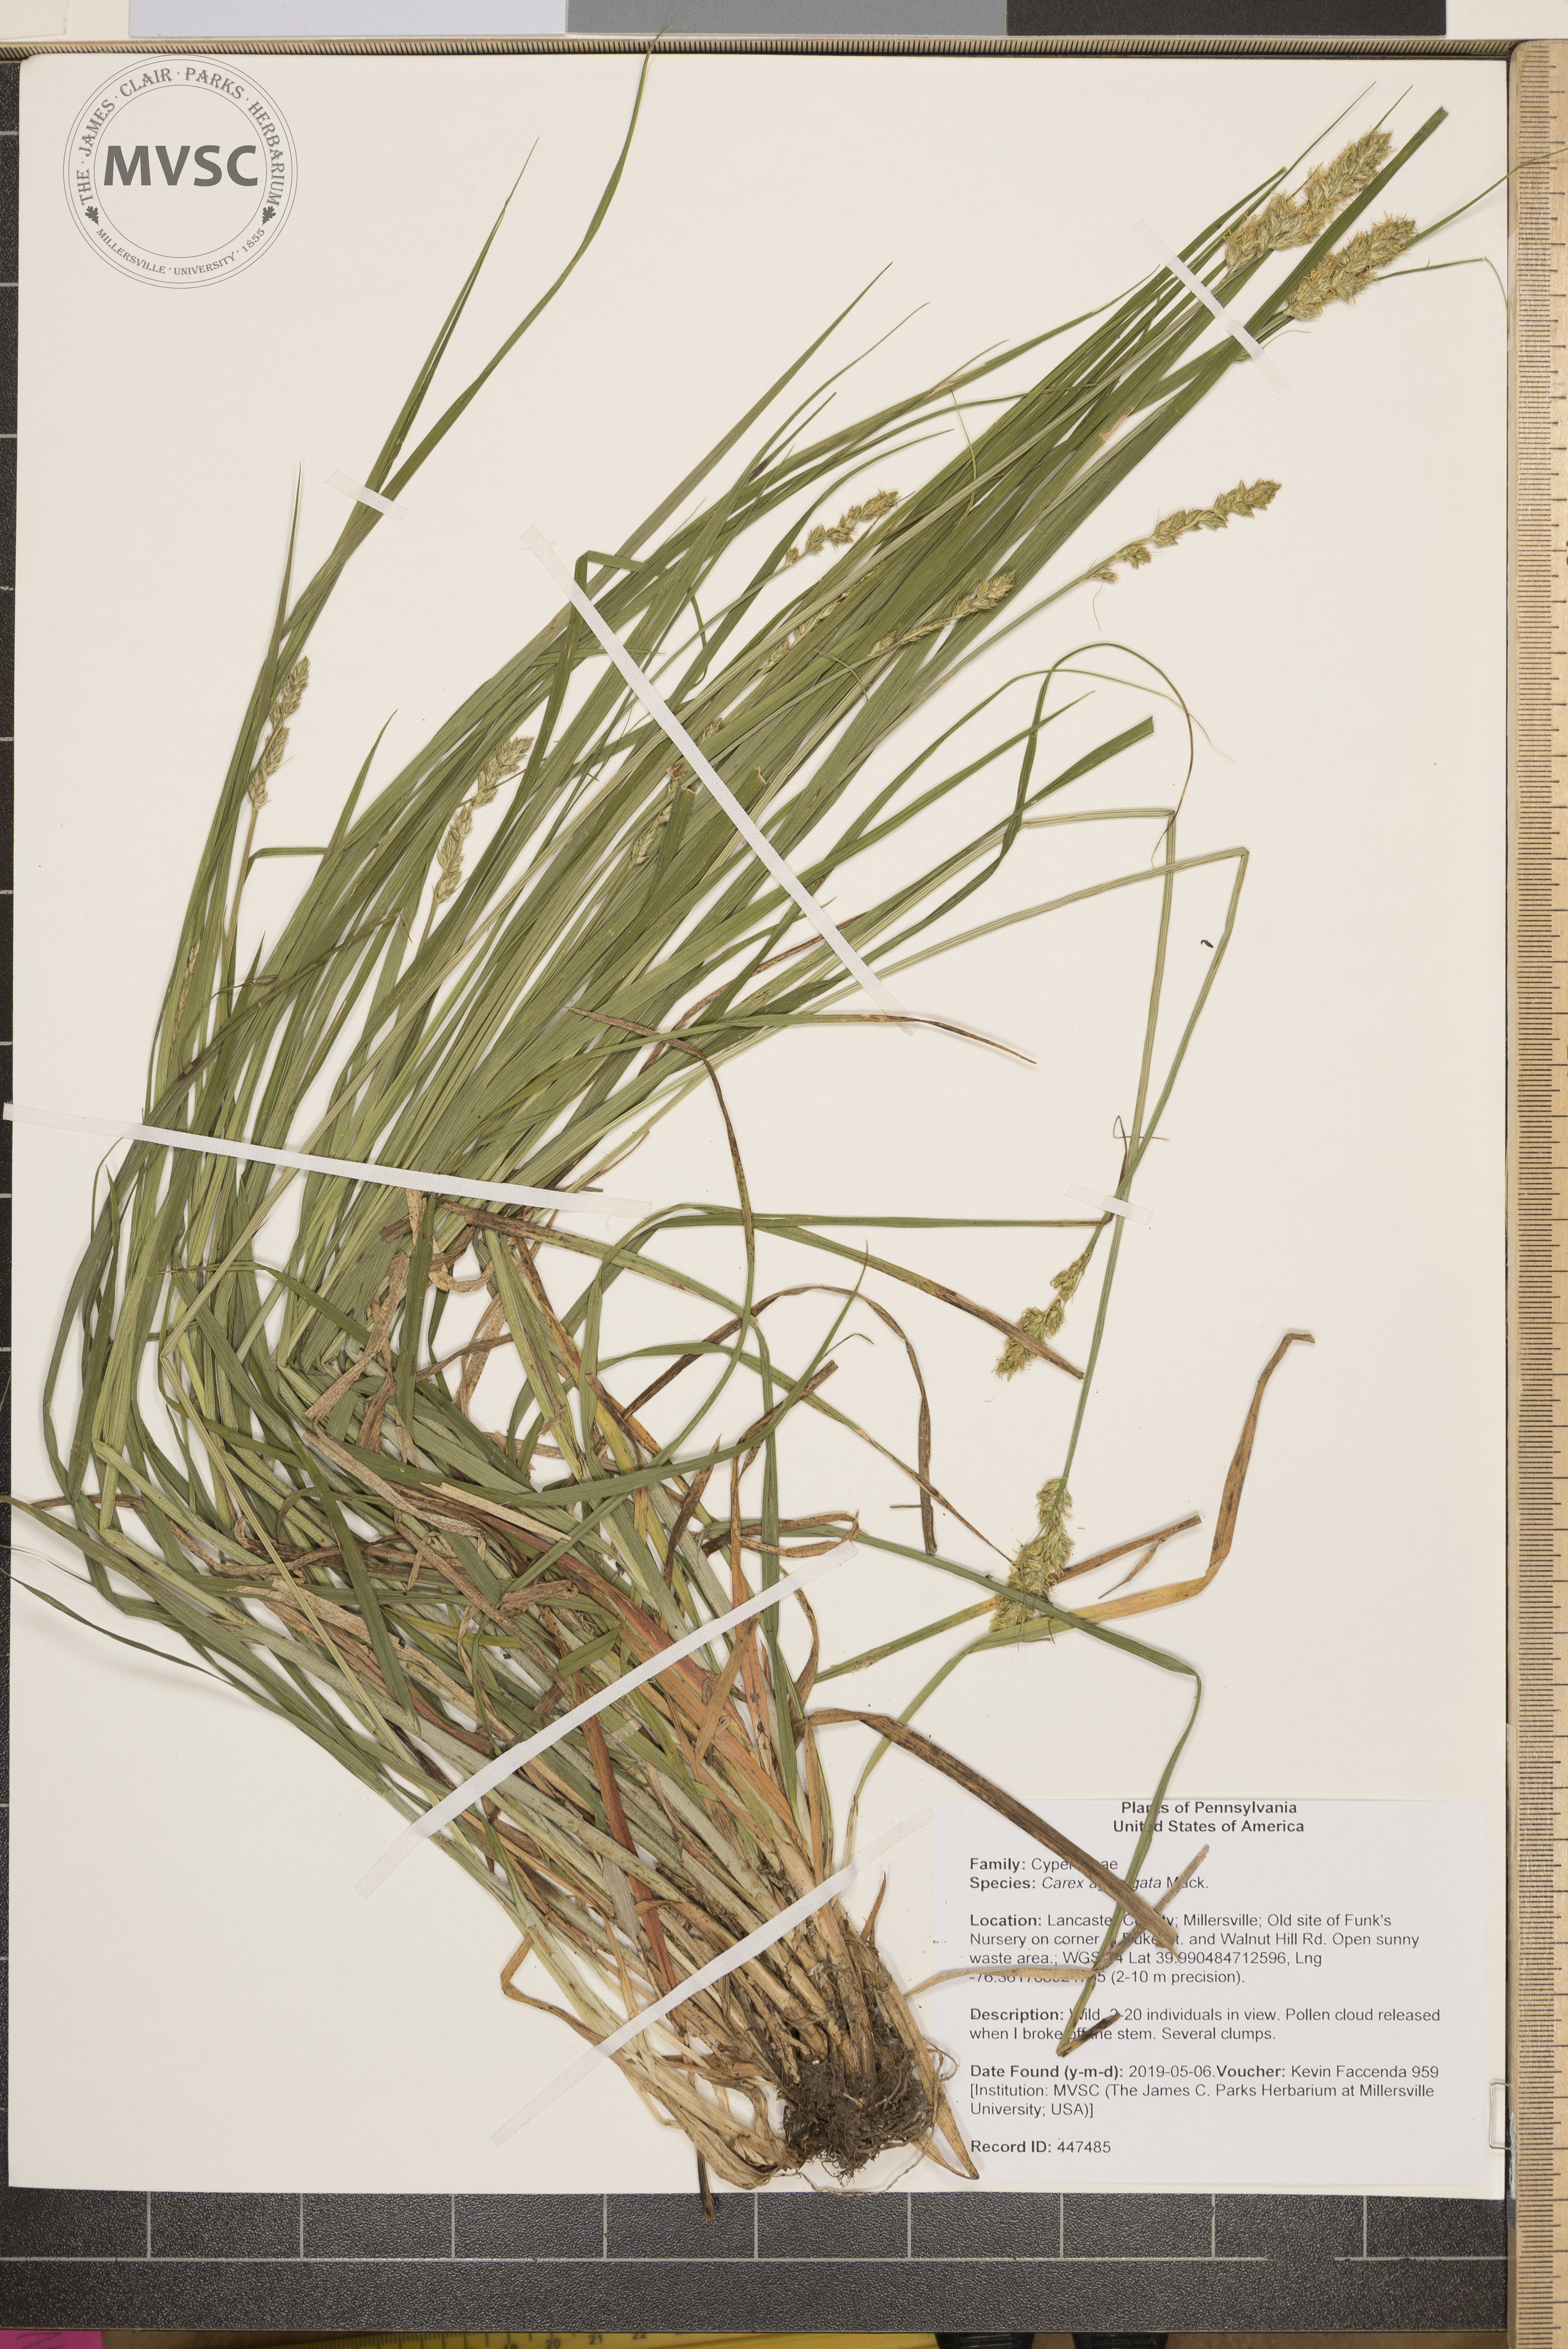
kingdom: Plantae
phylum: Tracheophyta
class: Liliopsida
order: Poales
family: Cyperaceae
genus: Carex
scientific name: Carex aggregata
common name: Crowded sedge
